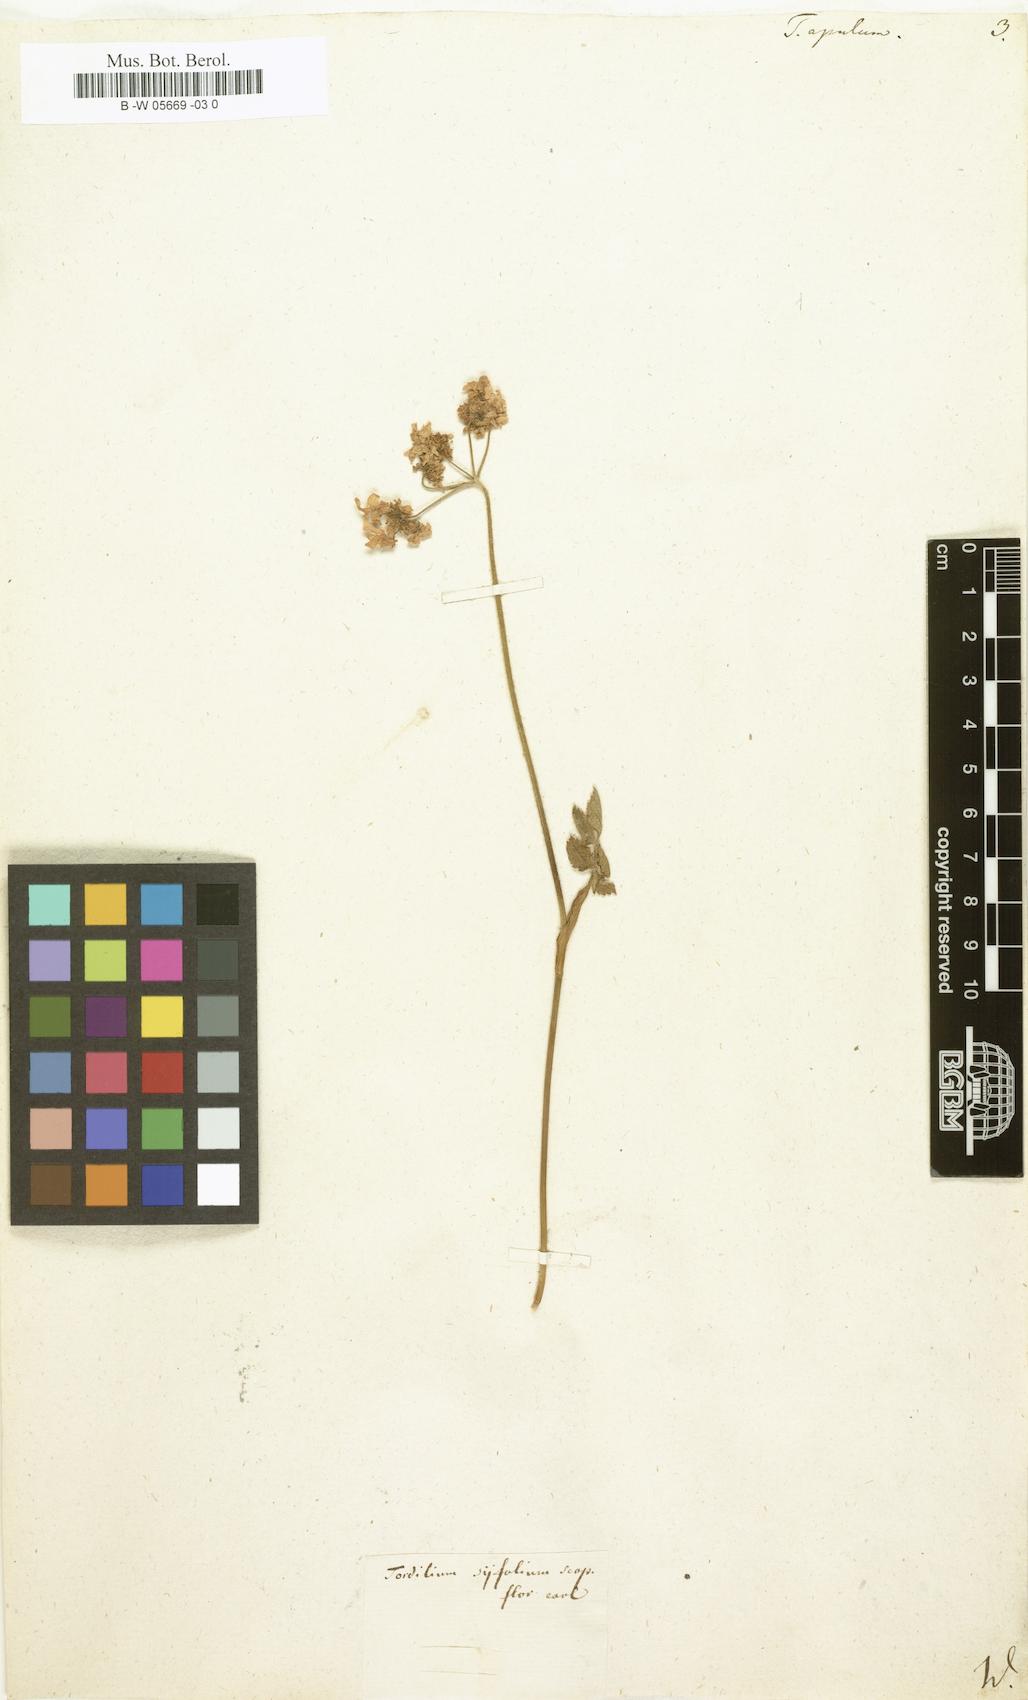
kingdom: Plantae
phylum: Tracheophyta
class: Magnoliopsida
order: Apiales
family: Apiaceae
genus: Tordylium
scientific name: Tordylium apulum
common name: Mediterranean hartwort
